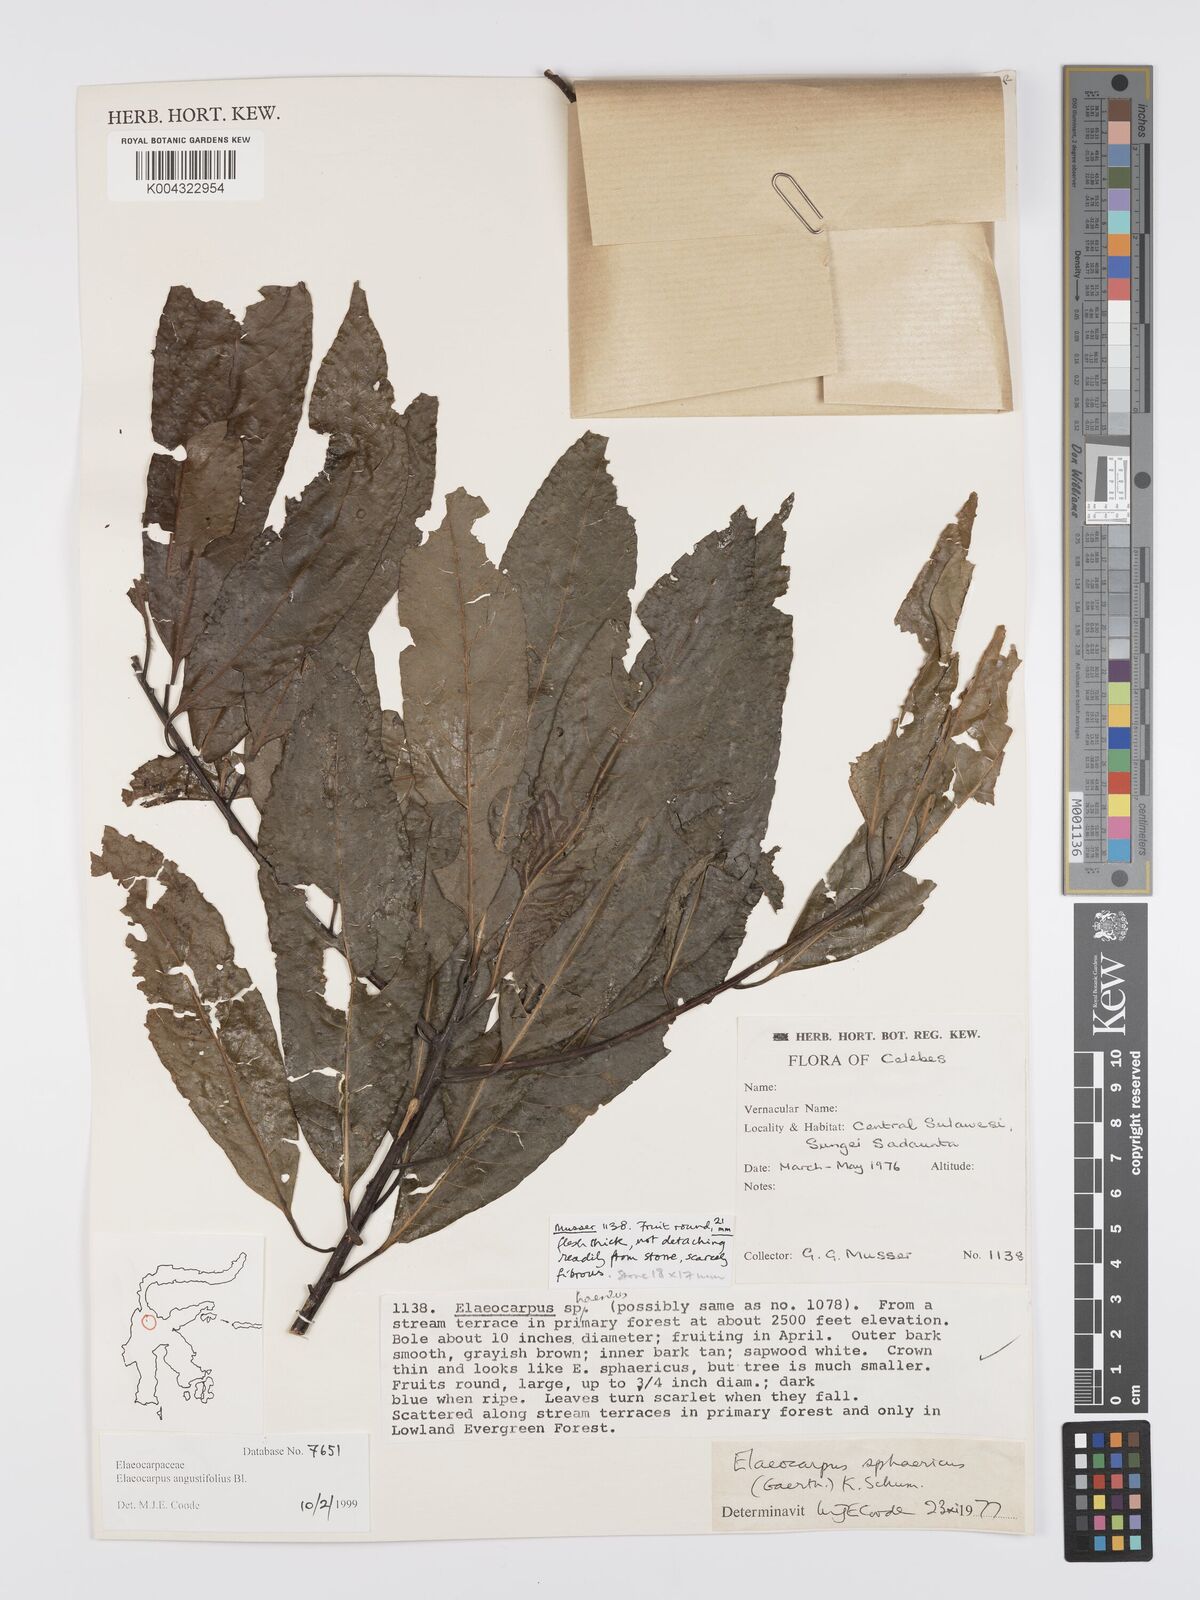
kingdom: Plantae
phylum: Tracheophyta
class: Magnoliopsida
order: Oxalidales
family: Elaeocarpaceae
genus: Elaeocarpus
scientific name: Elaeocarpus sphaericus
